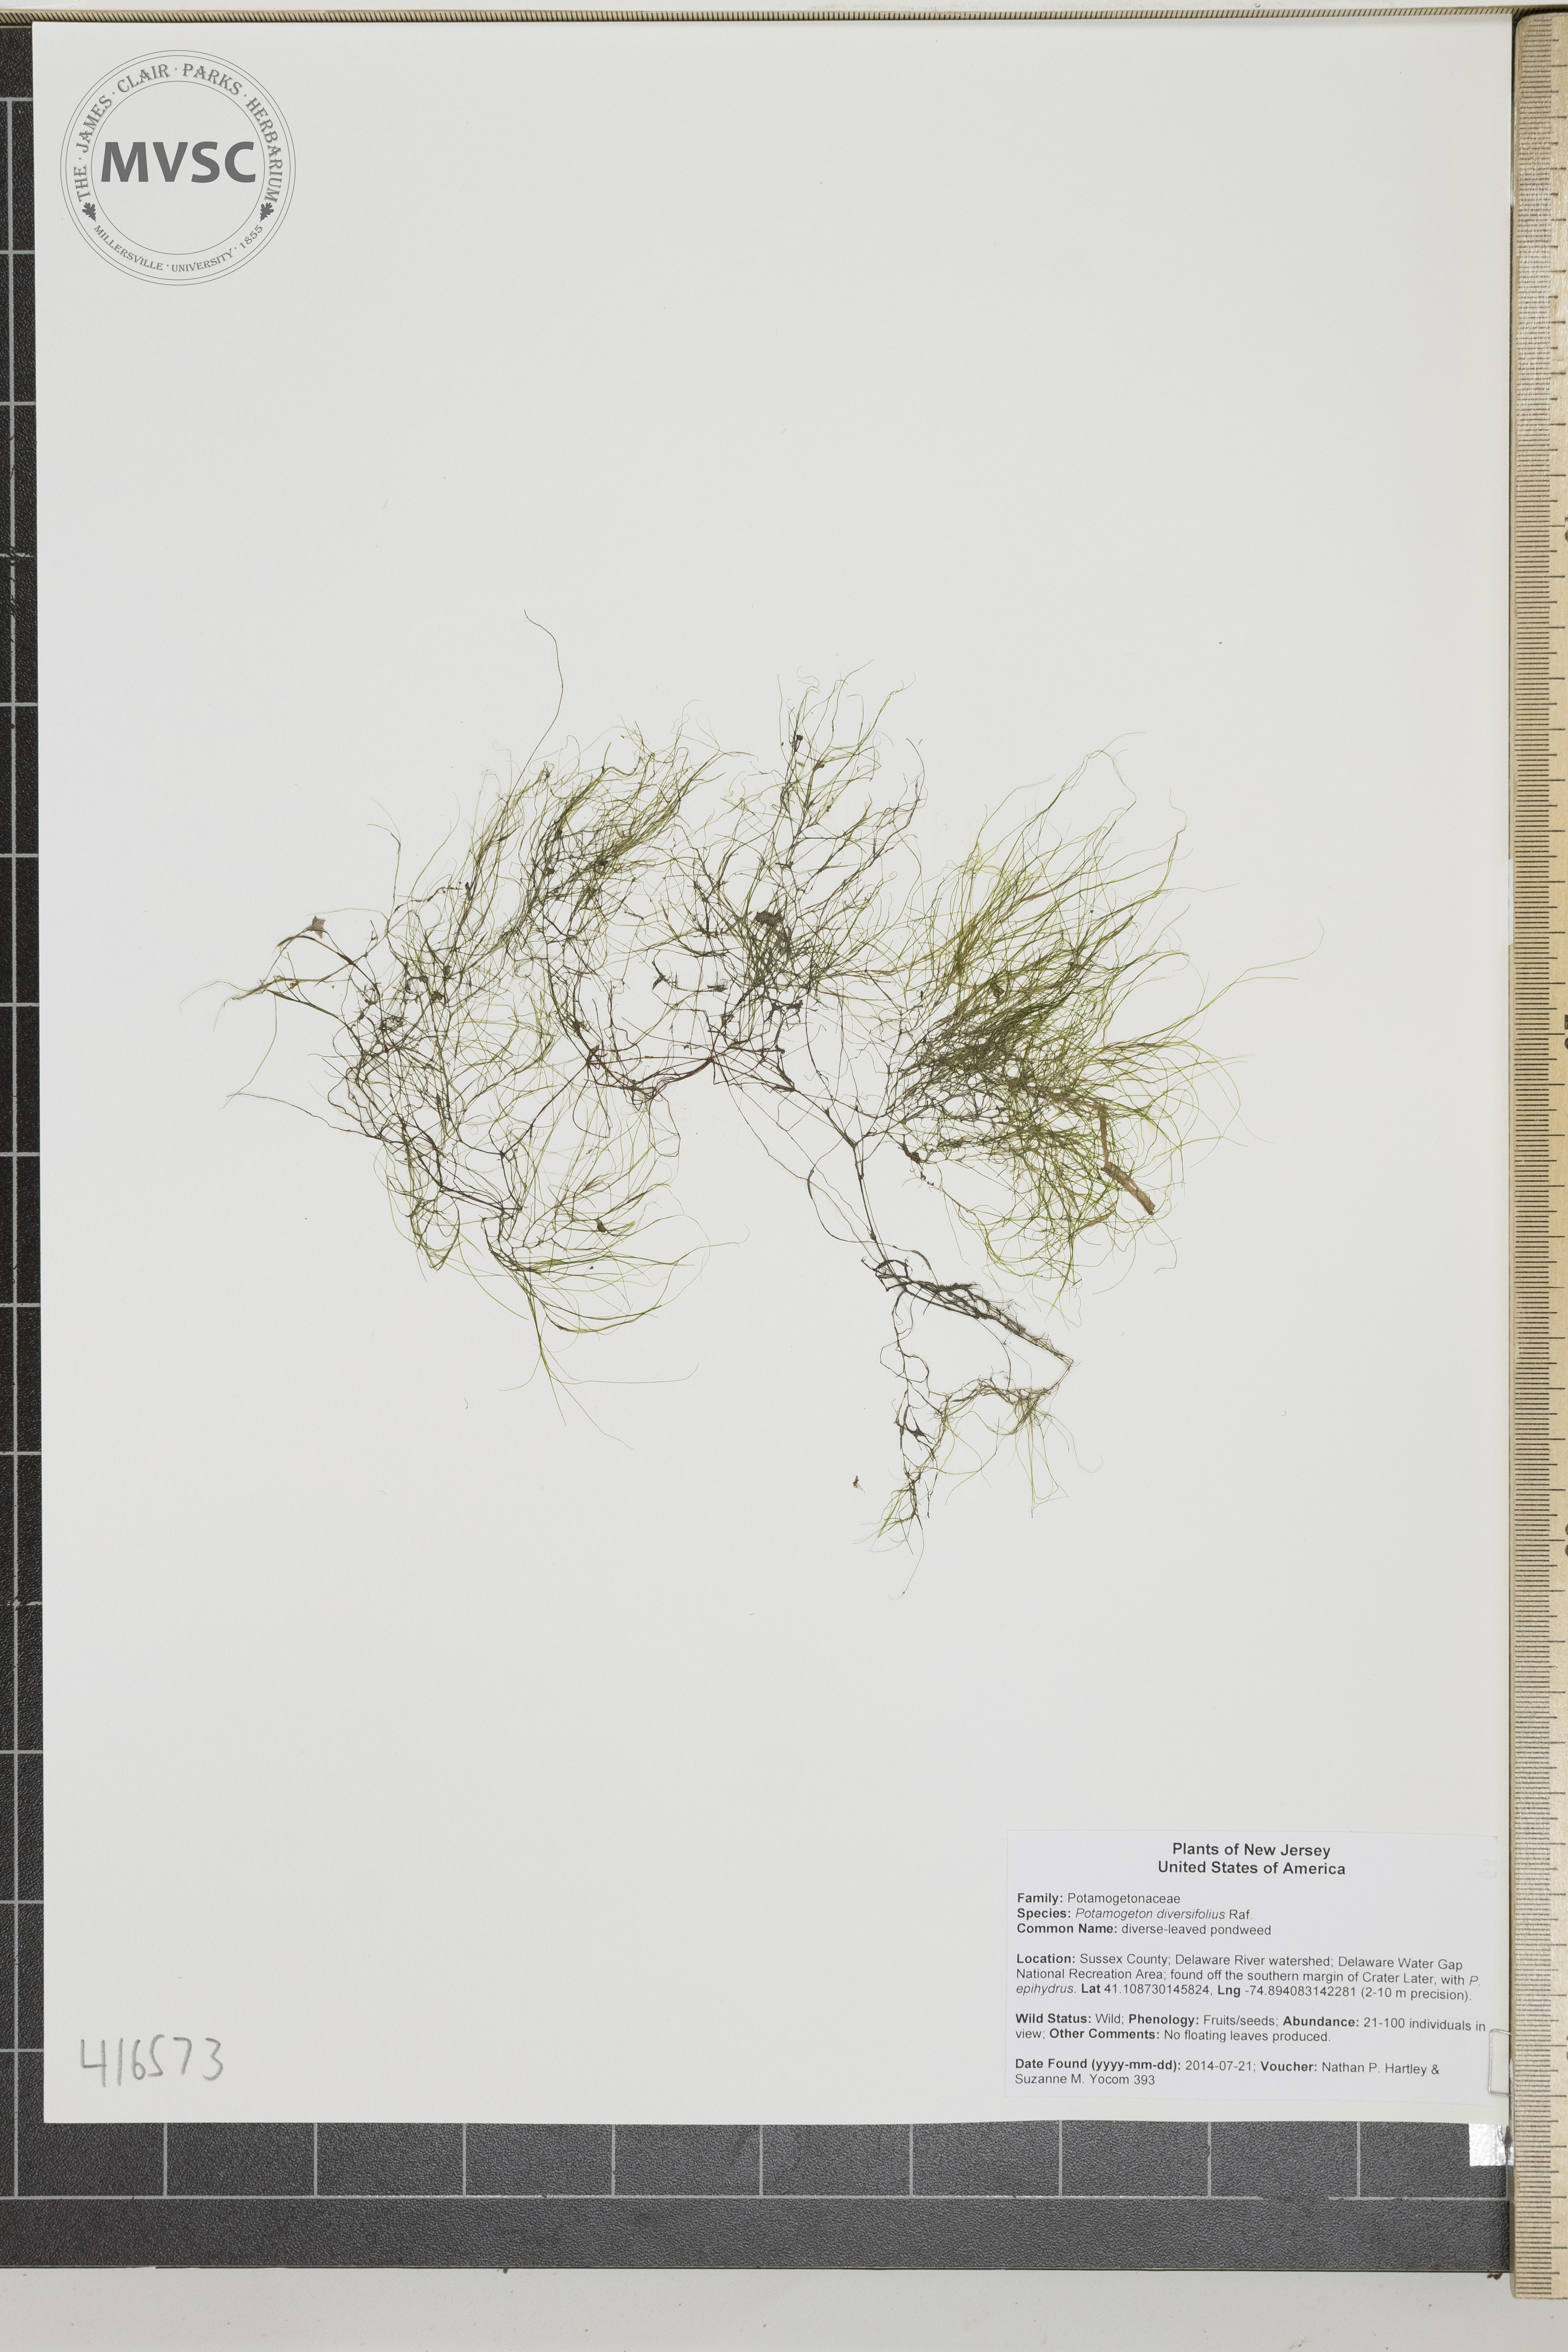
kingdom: Plantae
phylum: Tracheophyta
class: Liliopsida
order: Alismatales
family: Potamogetonaceae
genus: Potamogeton
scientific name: Potamogeton diversifolius
